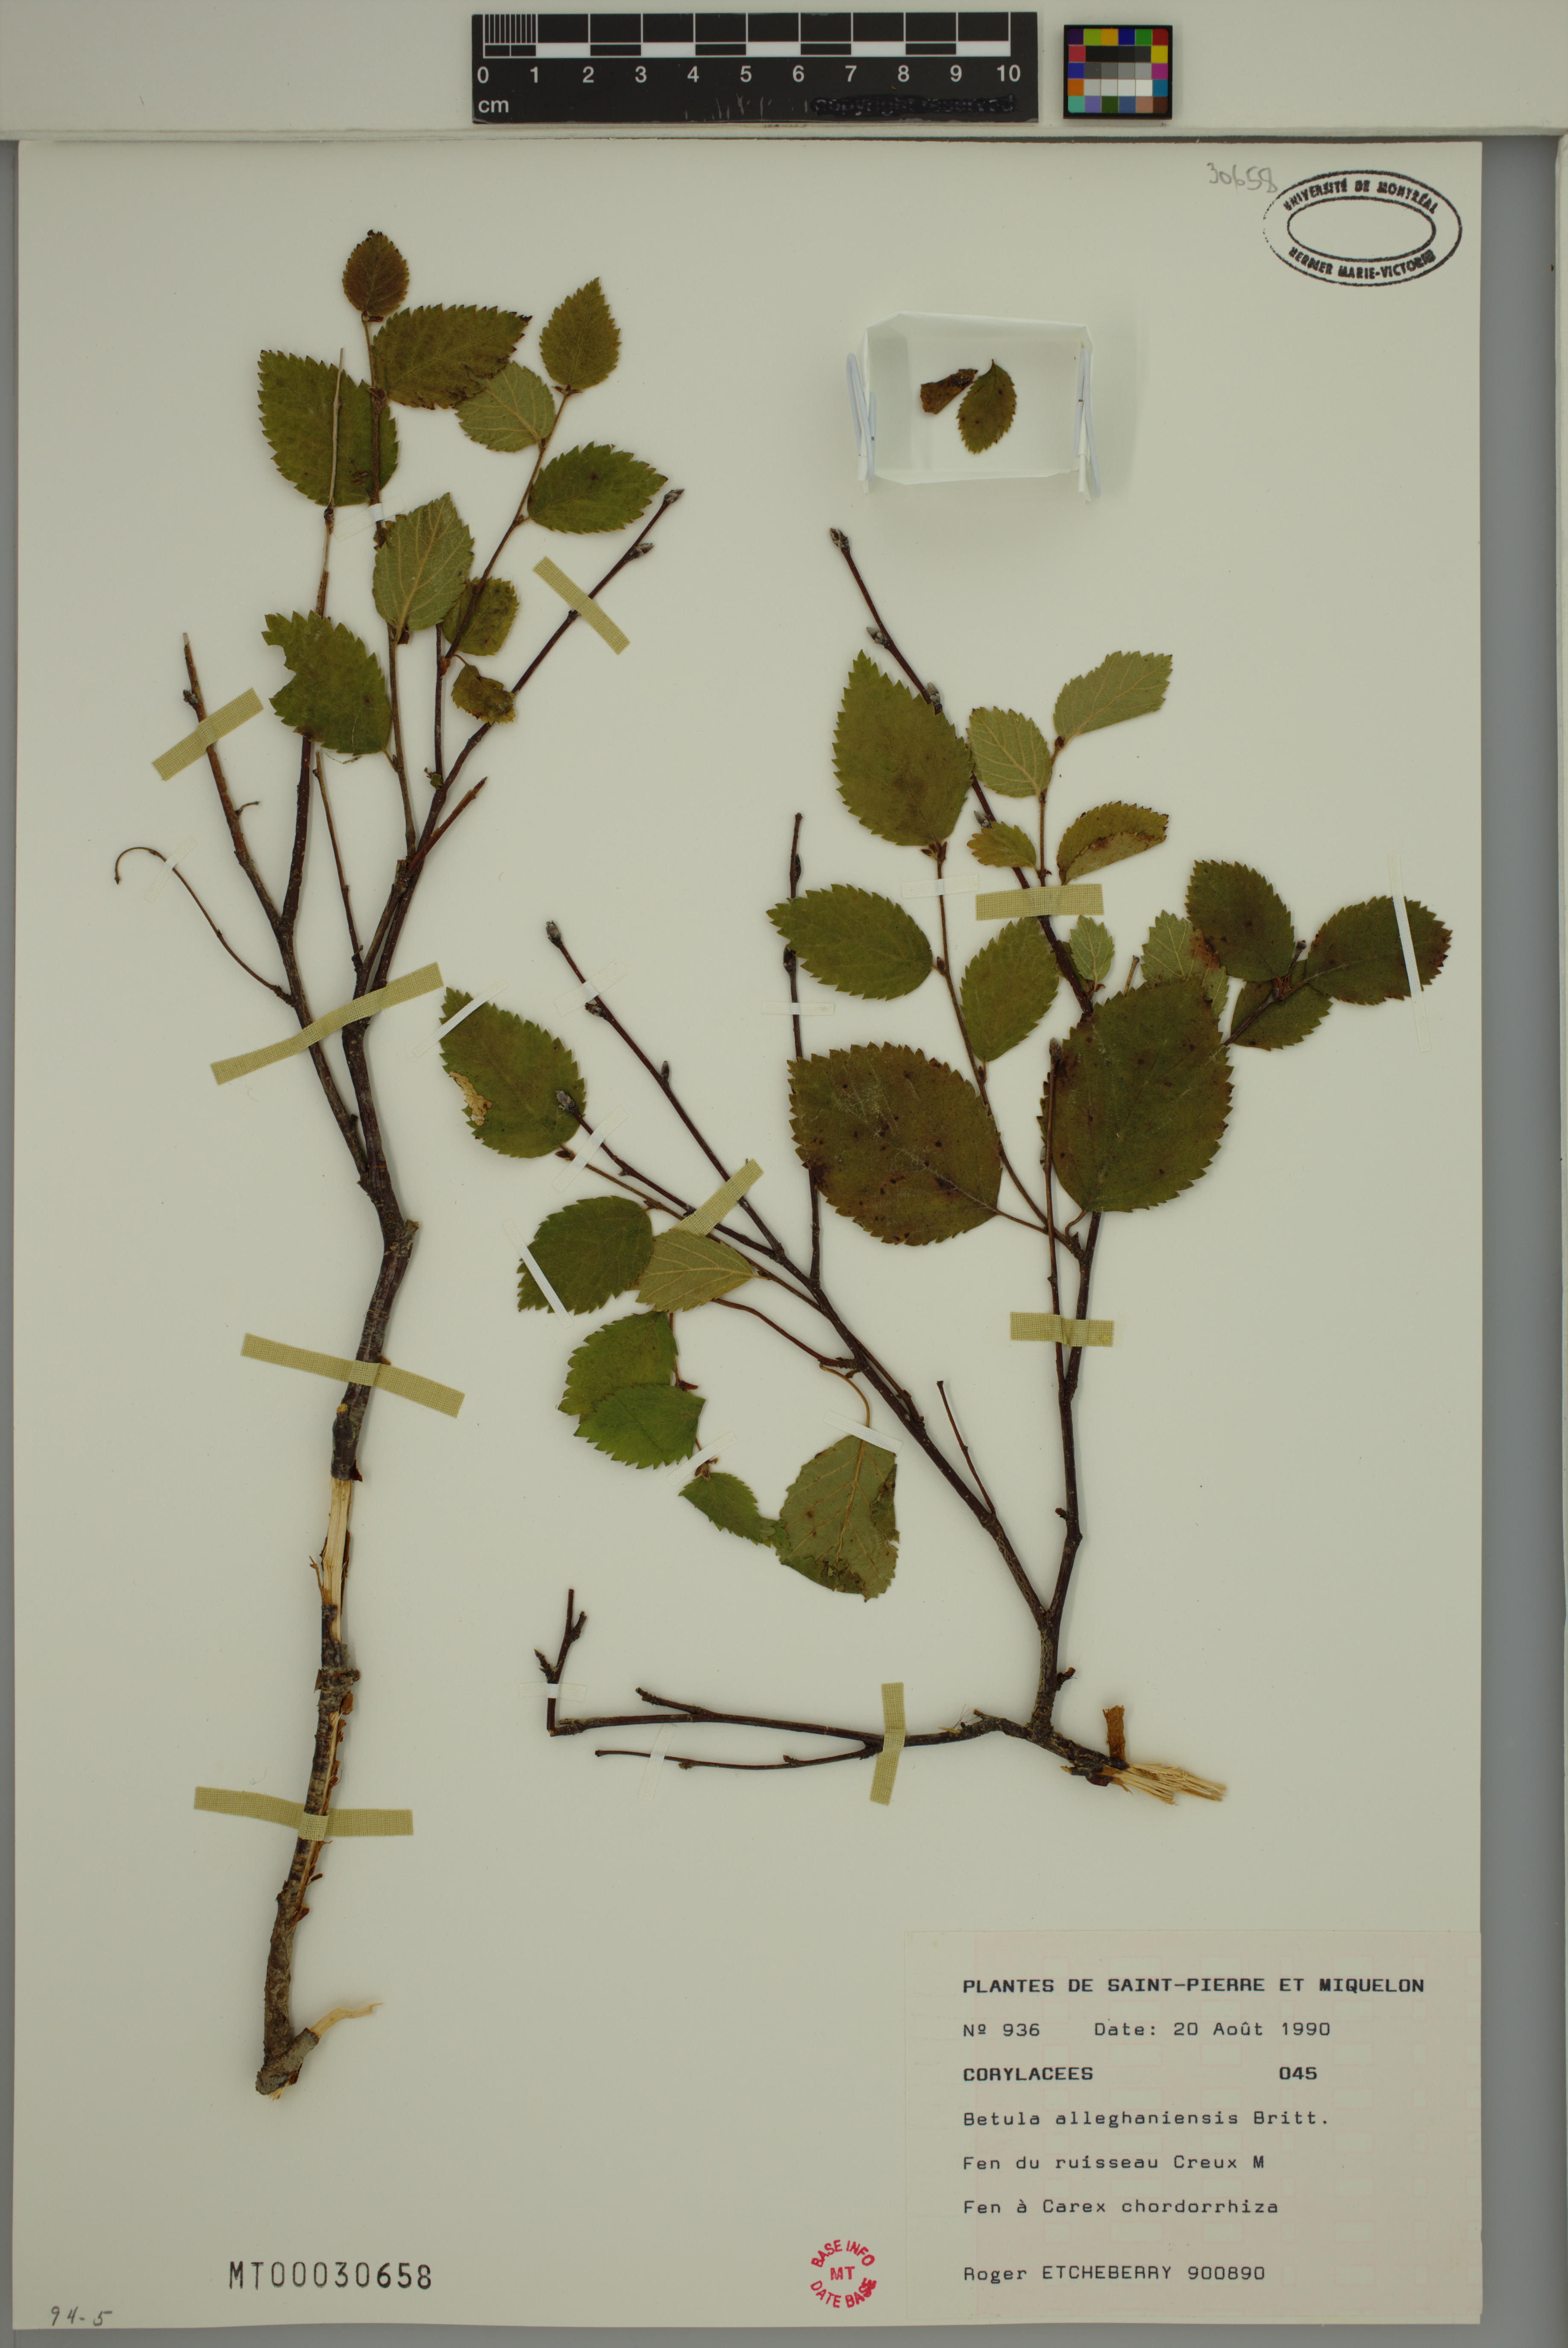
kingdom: Plantae
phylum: Tracheophyta
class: Magnoliopsida
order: Fagales
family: Betulaceae
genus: Betula
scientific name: Betula alleghaniensis
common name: Yellow birch
